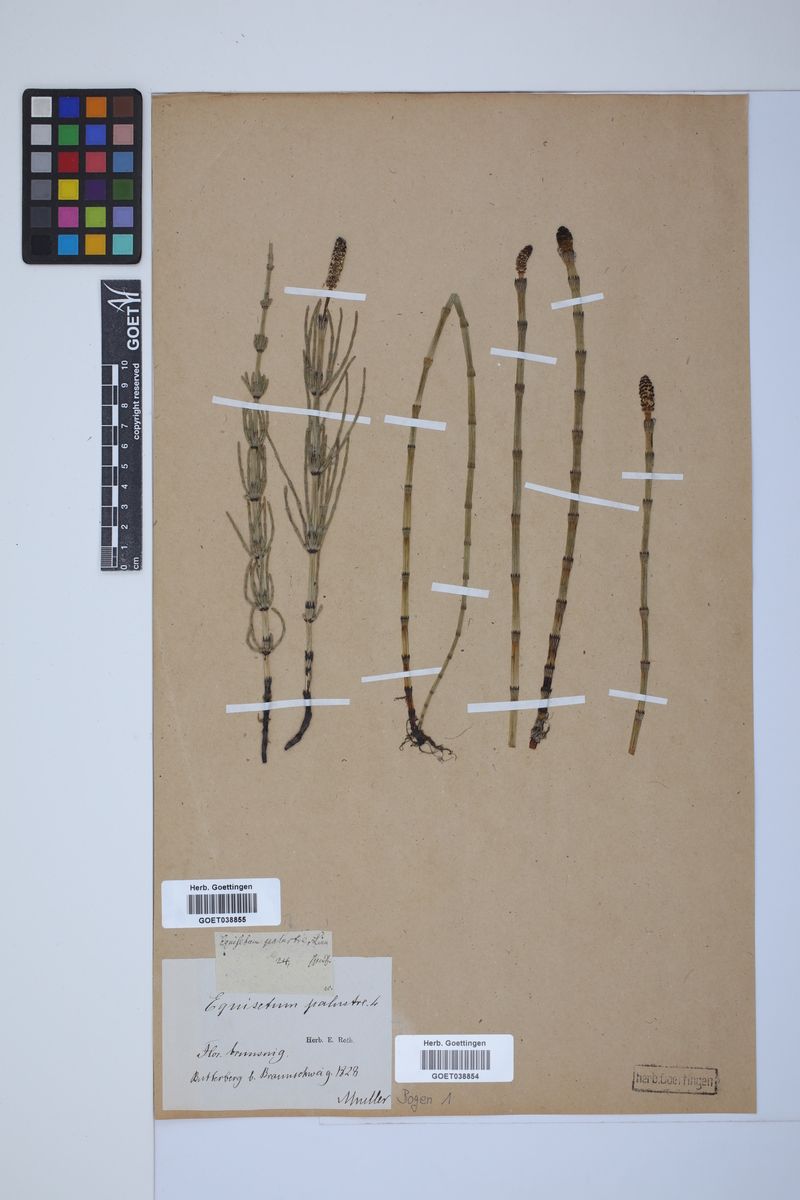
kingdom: Plantae
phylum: Tracheophyta
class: Polypodiopsida
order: Equisetales
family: Equisetaceae
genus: Equisetum
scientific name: Equisetum palustre
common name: Marsh horsetail
